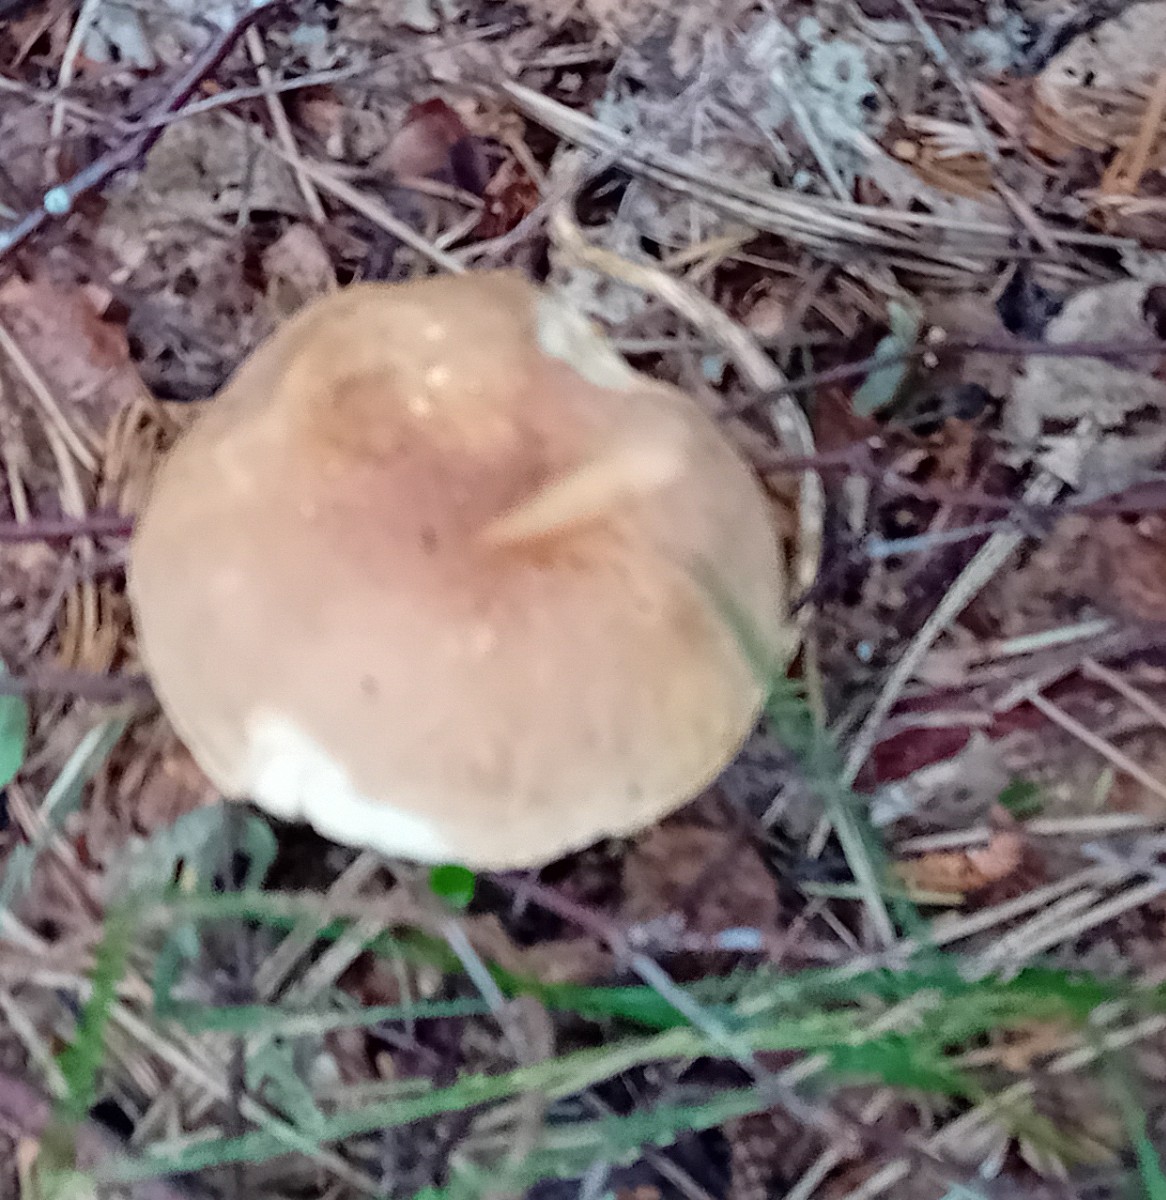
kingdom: Fungi
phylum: Basidiomycota
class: Agaricomycetes
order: Boletales
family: Boletaceae
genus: Leccinum
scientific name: Leccinum
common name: skælrørhat
